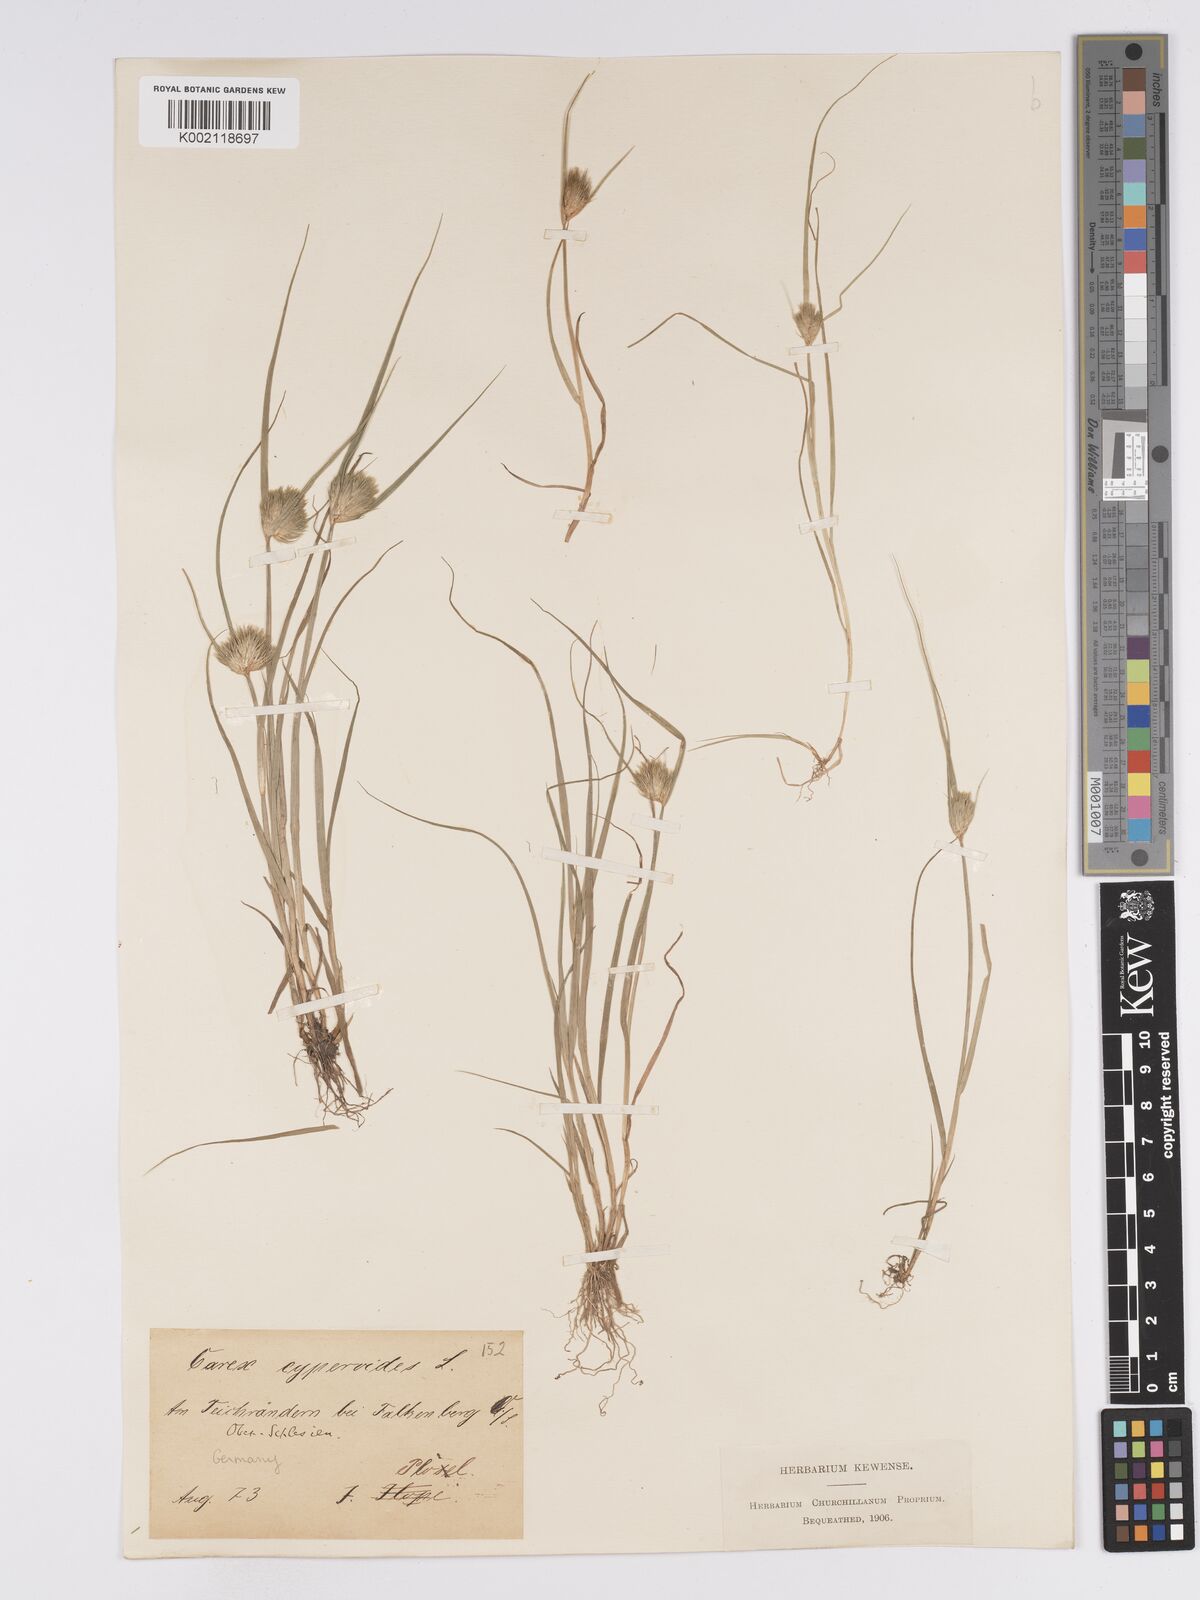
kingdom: Plantae
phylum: Tracheophyta
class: Liliopsida
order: Poales
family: Cyperaceae
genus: Carex
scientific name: Carex bohemica
